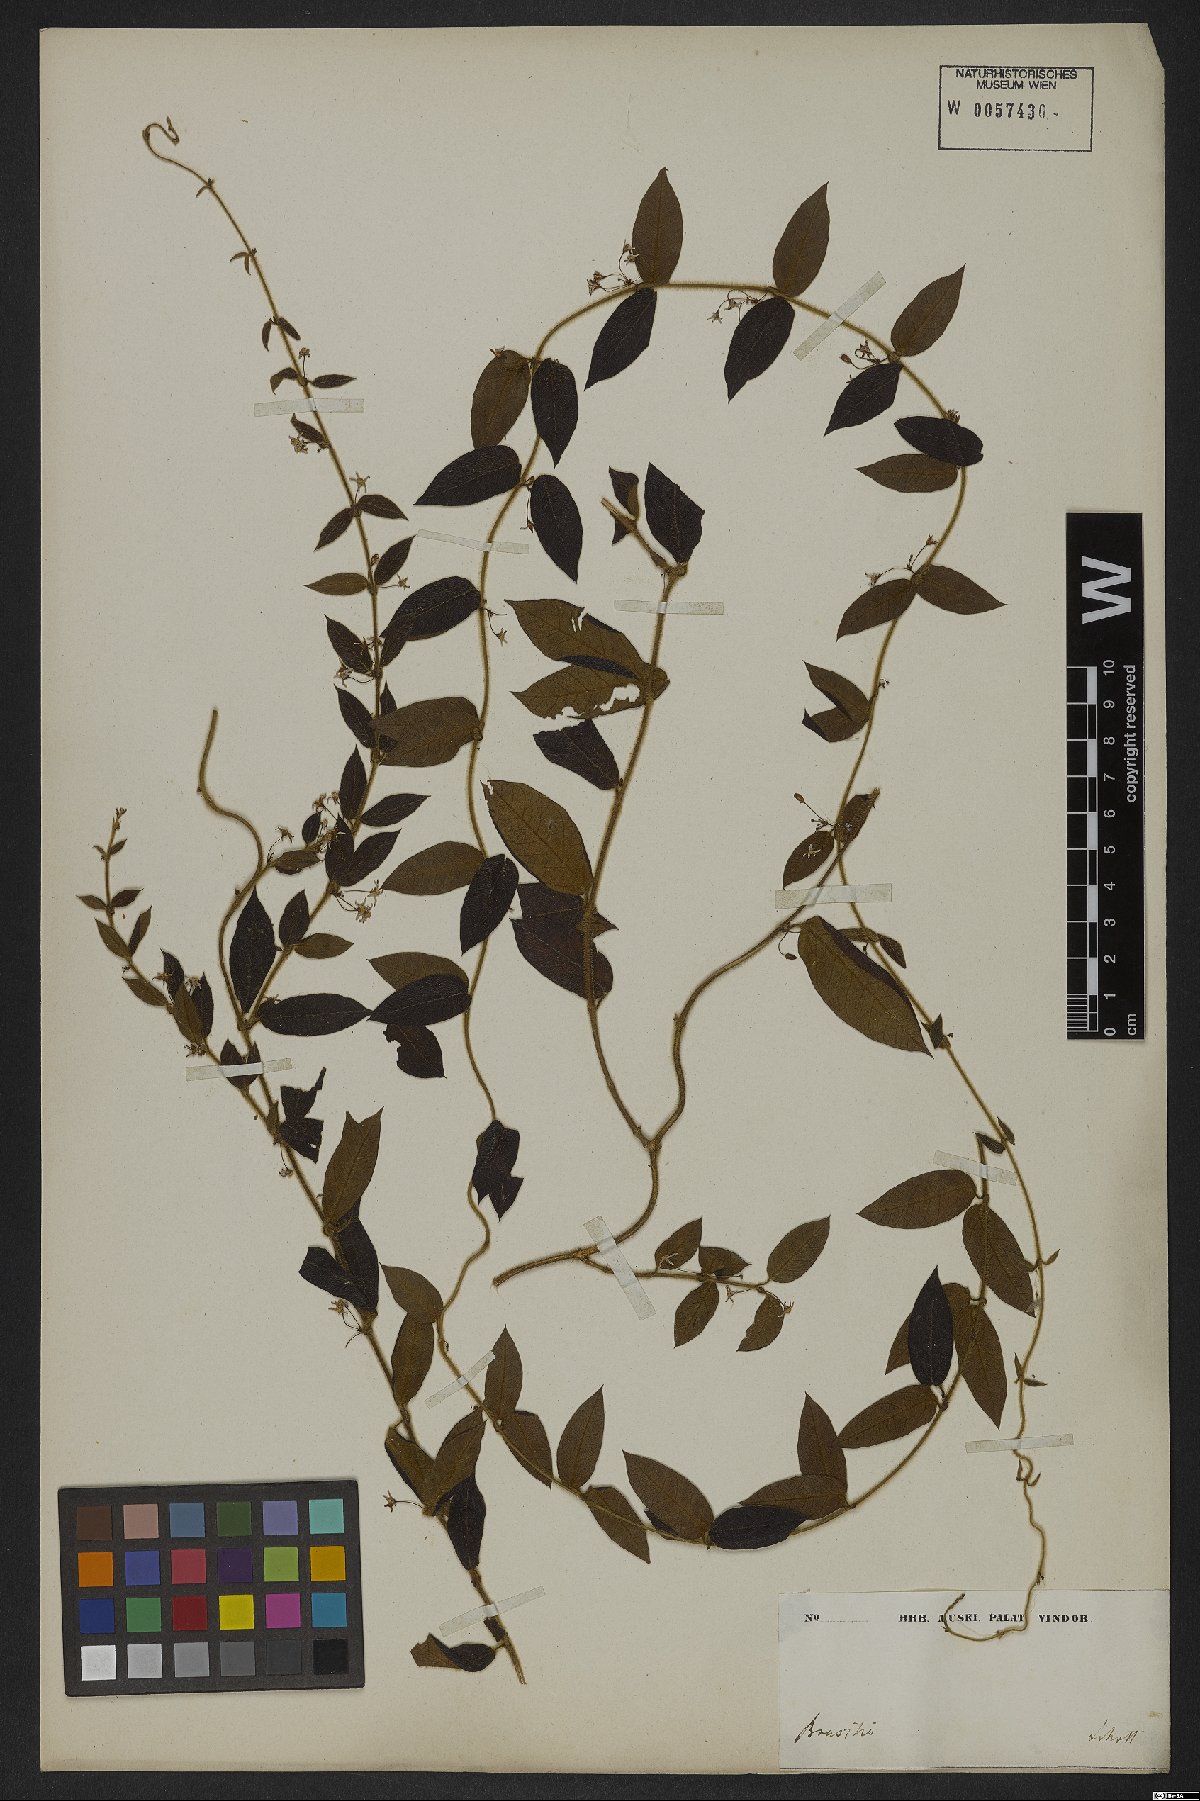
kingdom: Plantae
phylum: Tracheophyta
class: Magnoliopsida
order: Gentianales
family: Apocynaceae
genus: Ditassa
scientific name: Ditassa hispida
